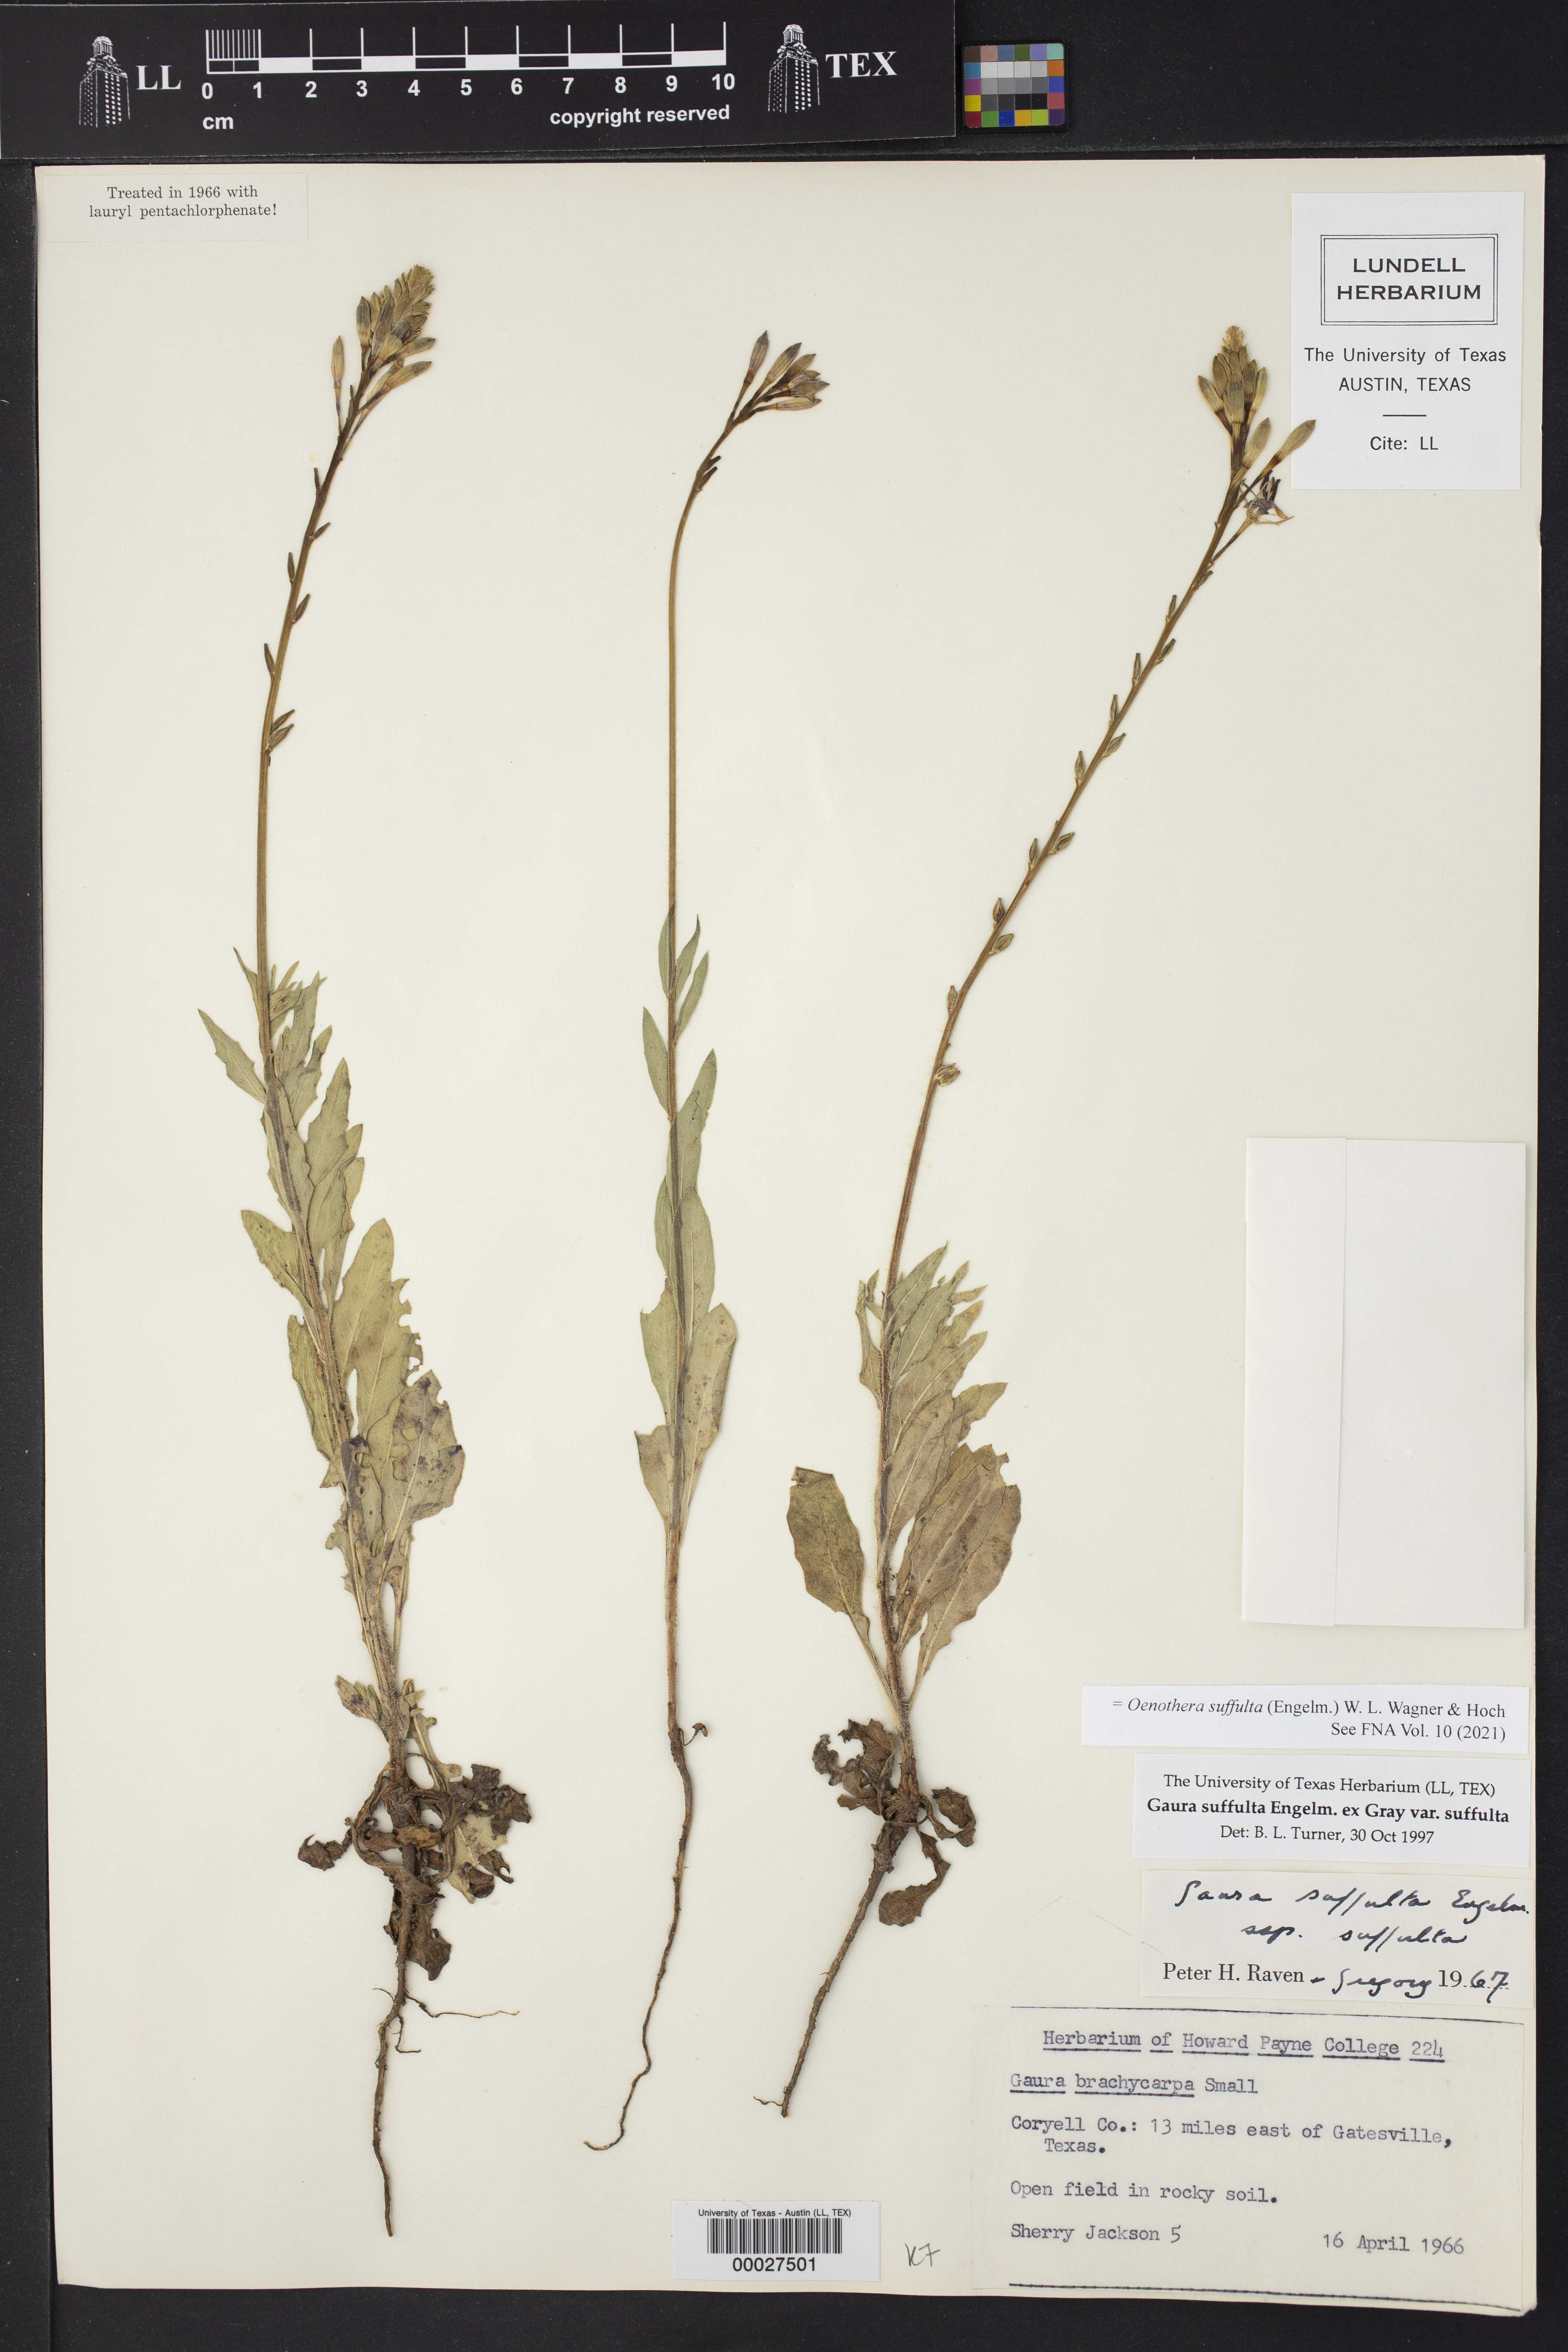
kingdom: Plantae
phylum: Tracheophyta
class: Magnoliopsida
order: Myrtales
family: Onagraceae
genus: Oenothera
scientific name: Oenothera suffulta
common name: Kisses
